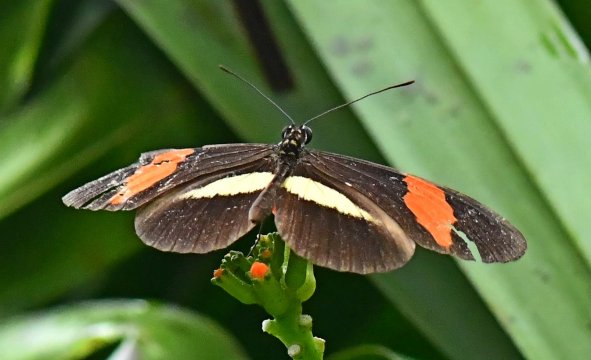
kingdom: Animalia
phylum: Arthropoda
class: Insecta
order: Lepidoptera
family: Nymphalidae
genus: Heliconius
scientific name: Heliconius melpomene
